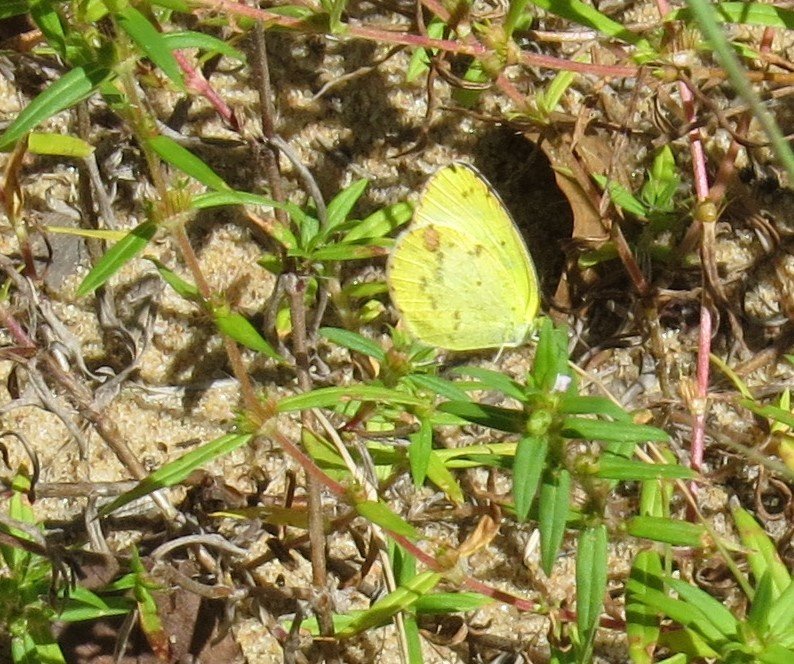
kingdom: Animalia
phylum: Arthropoda
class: Insecta
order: Lepidoptera
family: Pieridae
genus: Pyrisitia
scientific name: Pyrisitia lisa
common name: Little Yellow
